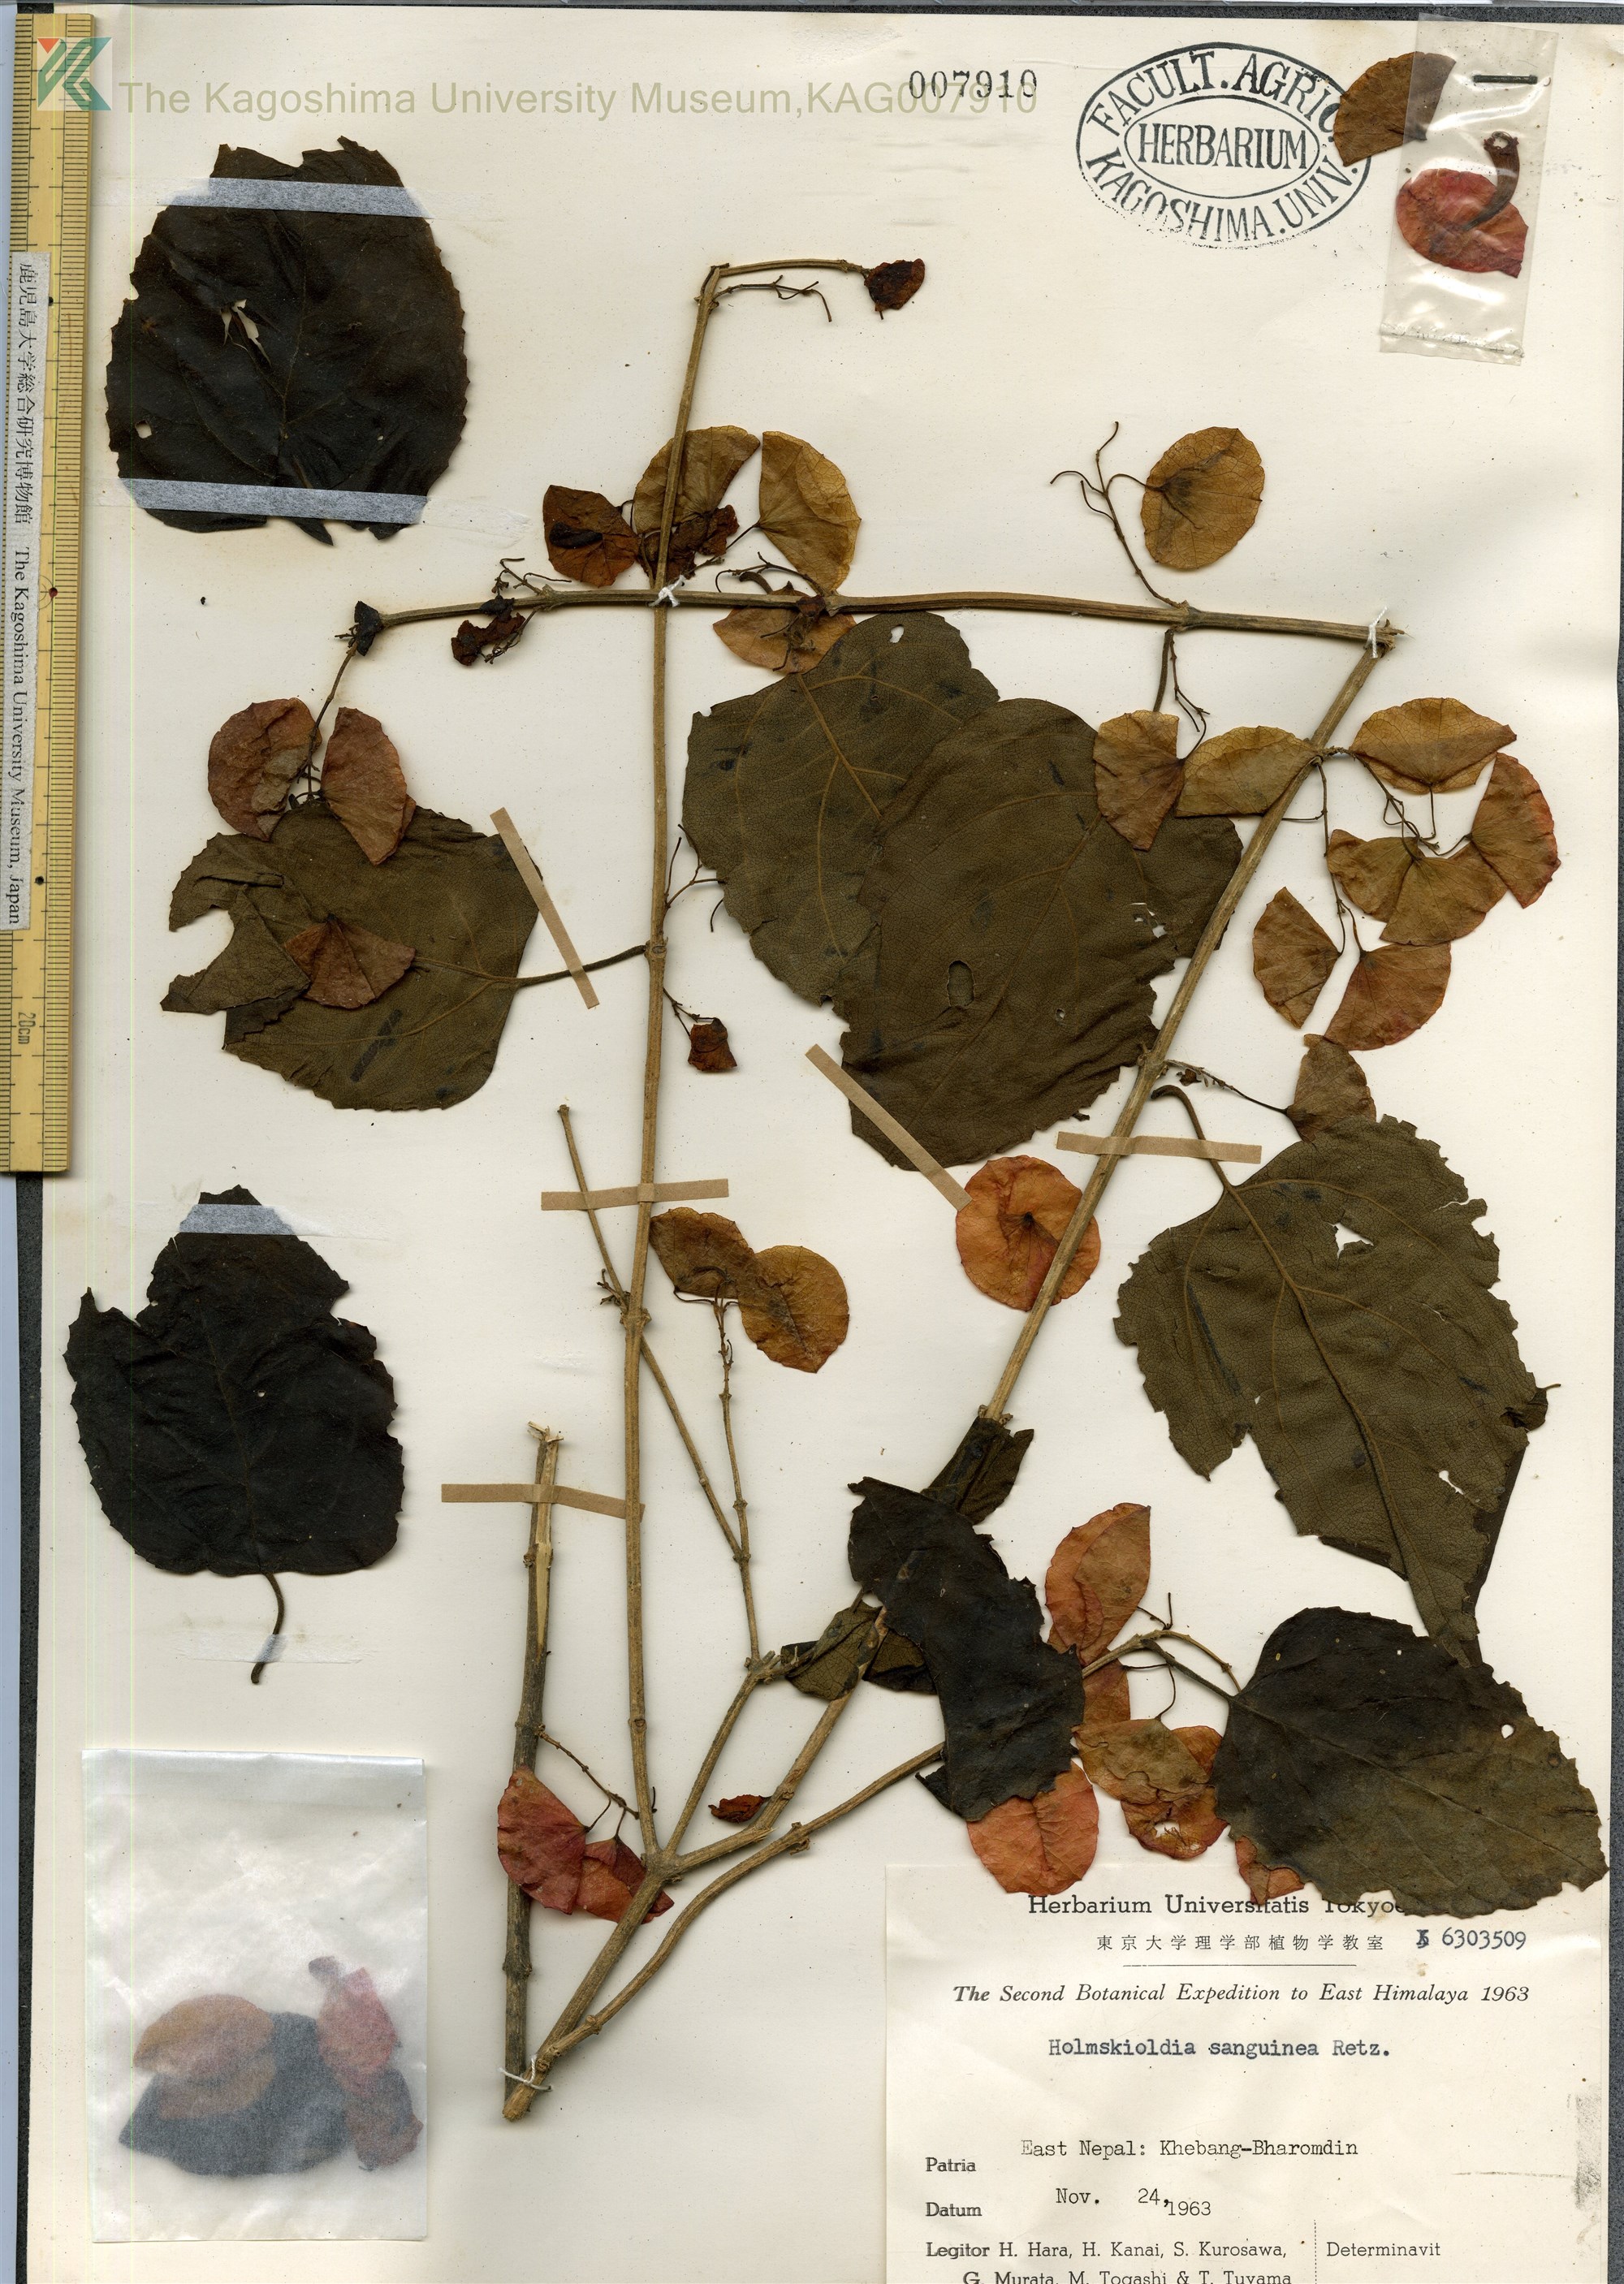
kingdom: Plantae
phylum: Tracheophyta
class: Magnoliopsida
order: Lamiales
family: Lamiaceae
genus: Holmskioldia
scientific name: Holmskioldia sanguinea
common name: Chinese hatplant
